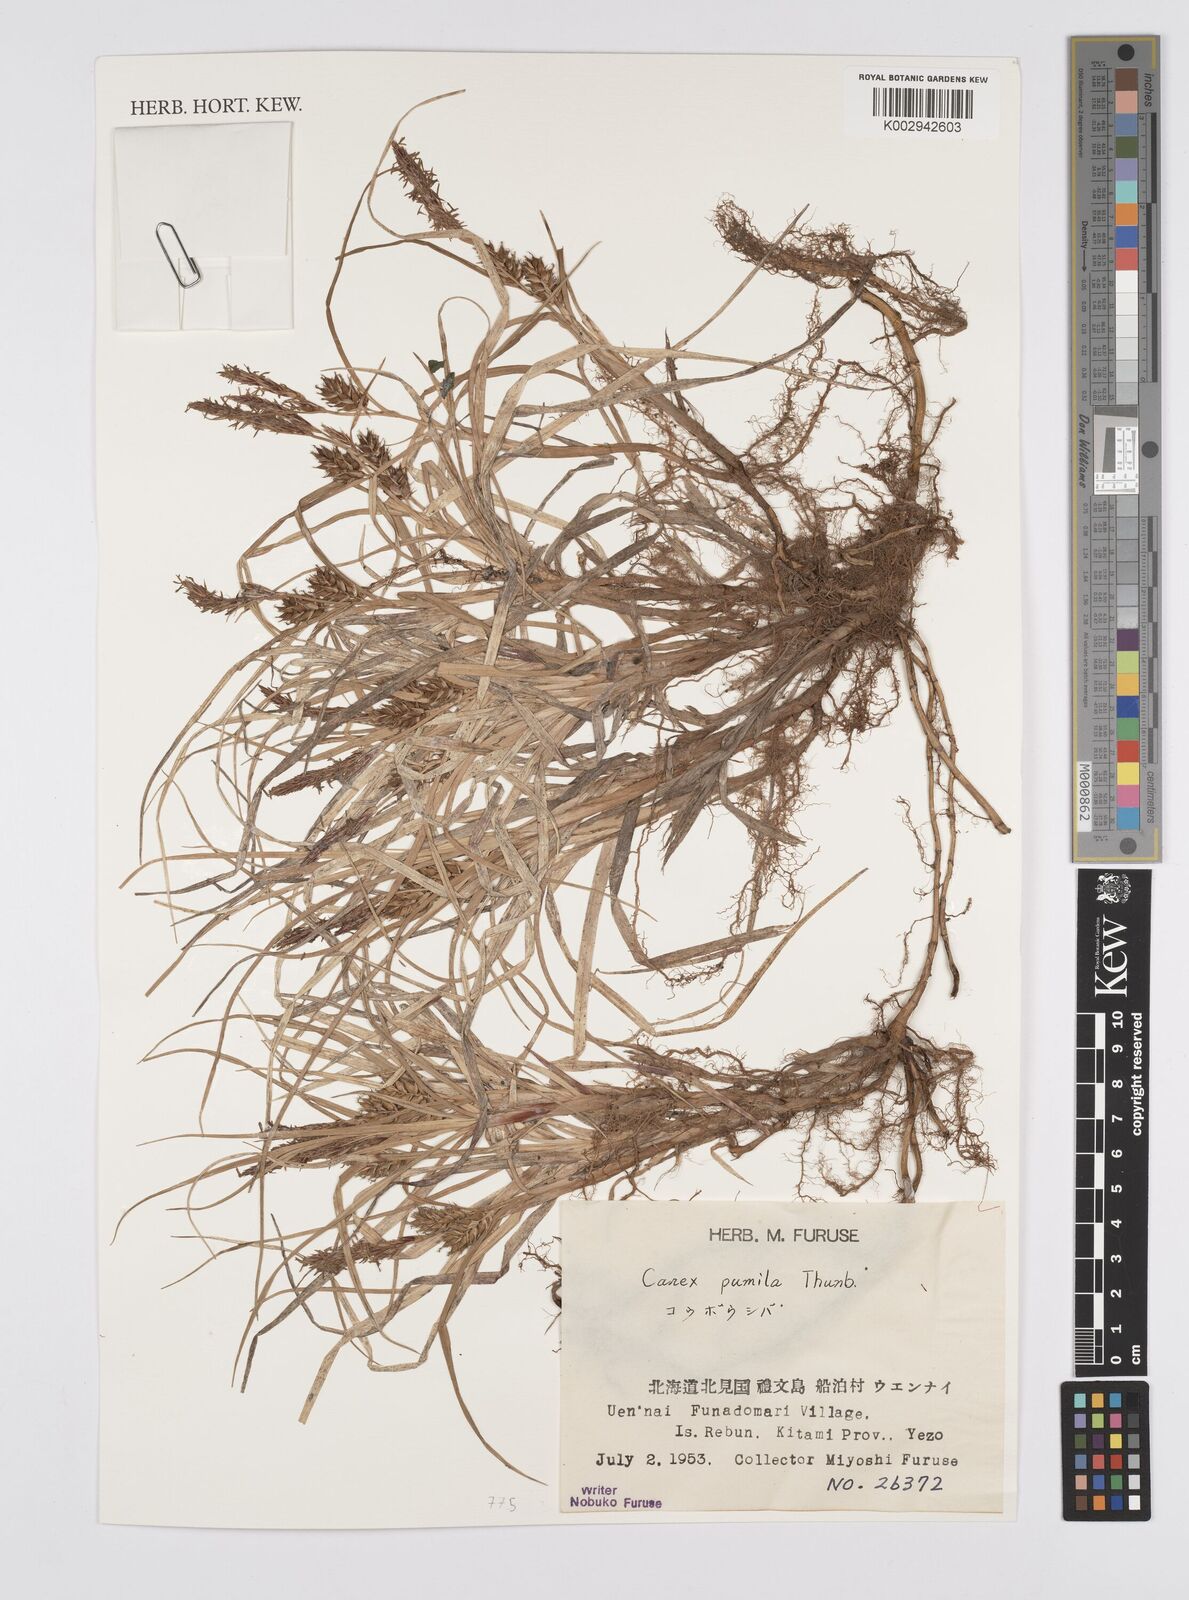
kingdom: Plantae
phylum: Tracheophyta
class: Liliopsida
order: Poales
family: Cyperaceae
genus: Carex
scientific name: Carex pumila
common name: Dwarf sedge
